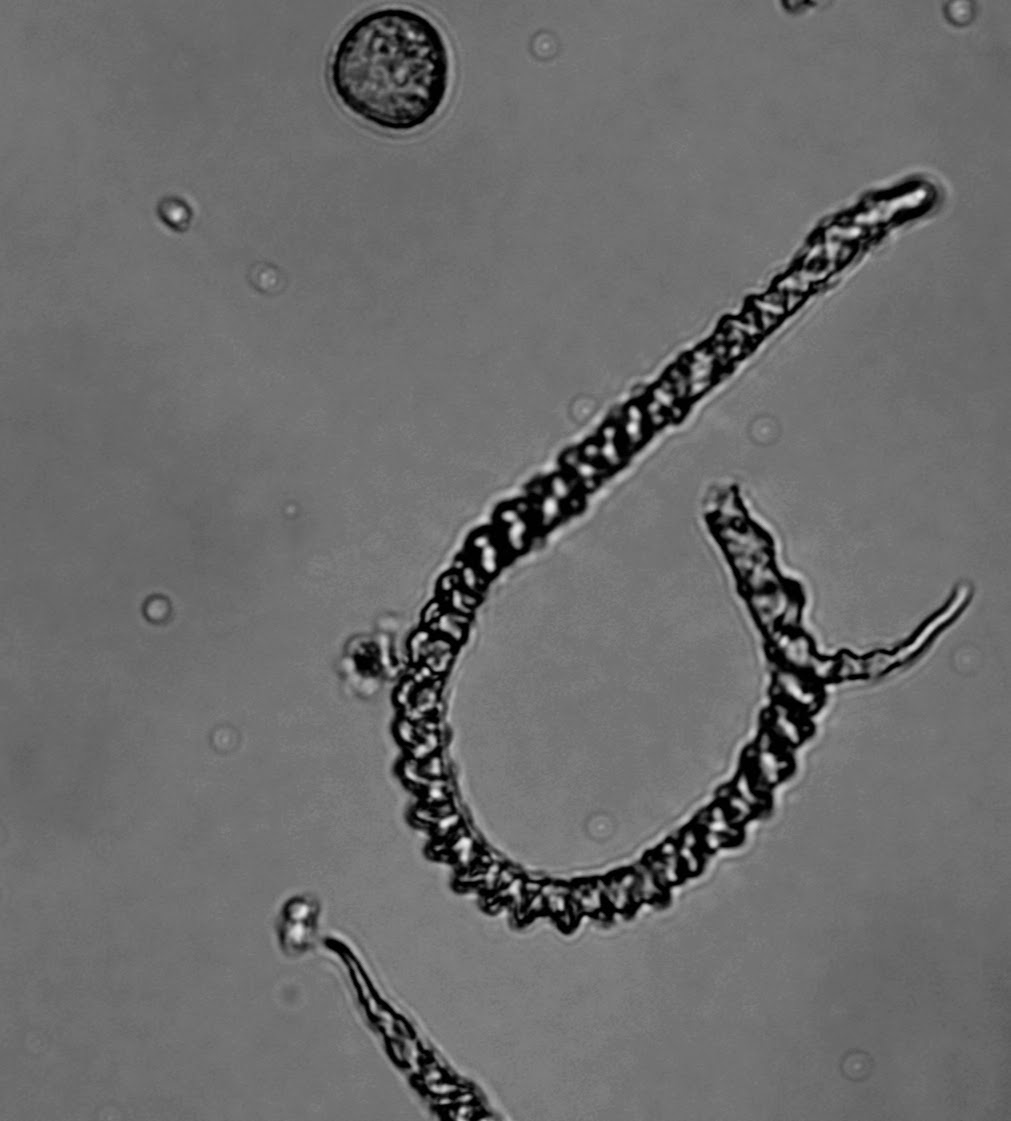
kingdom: Protozoa
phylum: Mycetozoa
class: Myxomycetes
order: Trichiales
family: Trichiaceae
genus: Trichia
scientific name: Trichia varia
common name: foranderlig hårbold
